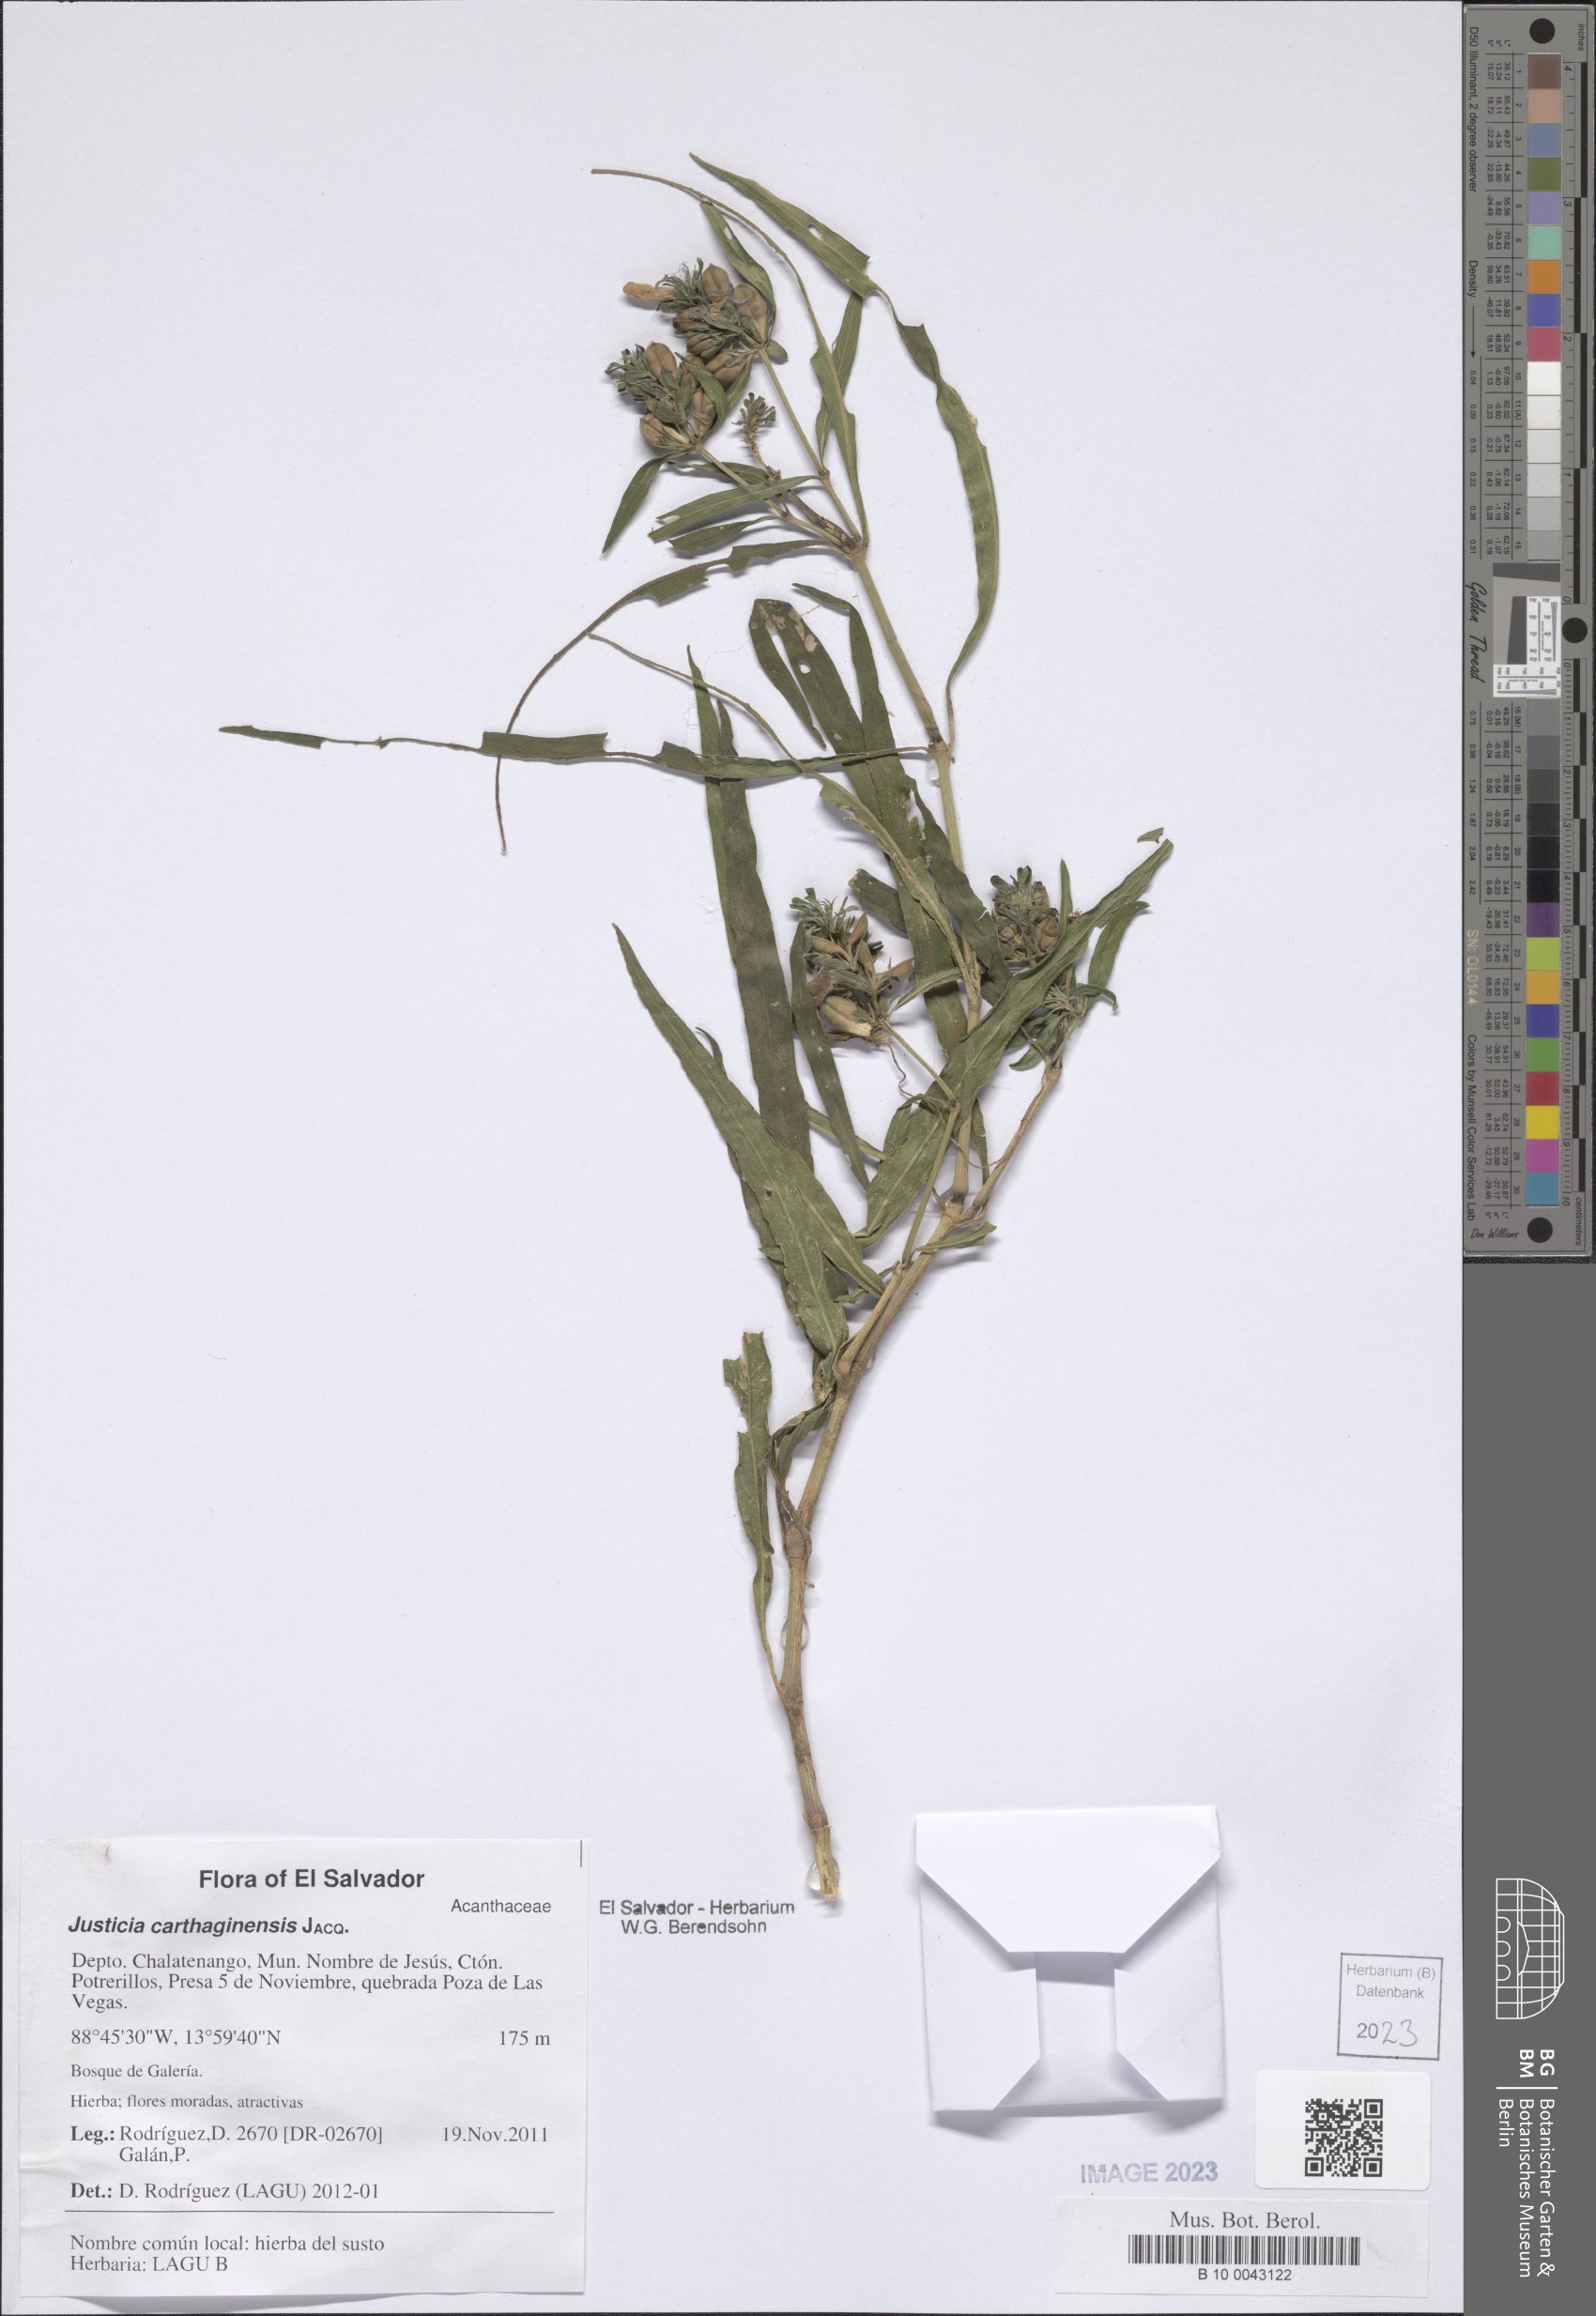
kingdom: Plantae
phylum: Tracheophyta
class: Magnoliopsida
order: Lamiales
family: Acanthaceae
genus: Justicia
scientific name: Justicia carthaginensis
